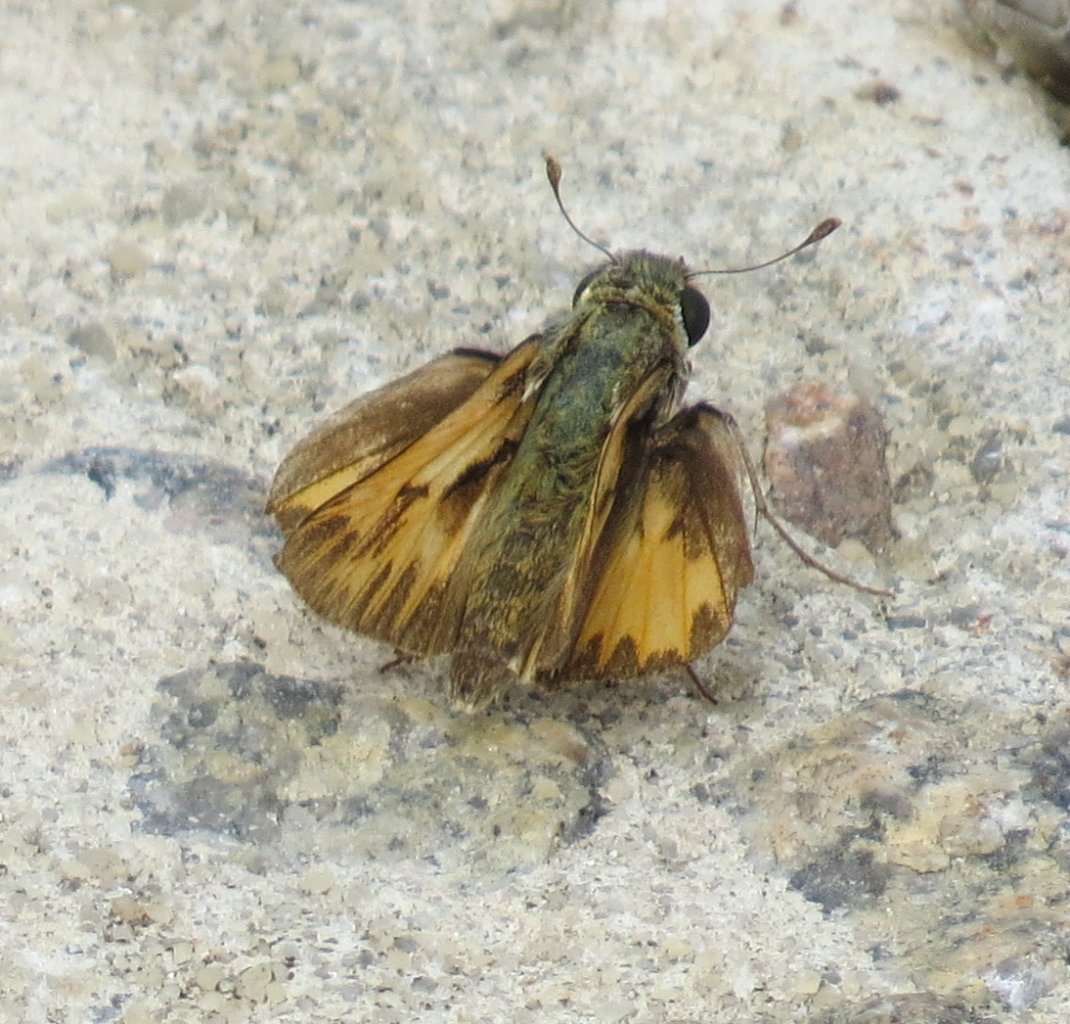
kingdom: Animalia
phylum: Arthropoda
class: Insecta
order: Lepidoptera
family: Hesperiidae
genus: Hylephila
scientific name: Hylephila phyleus
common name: Fiery Skipper
